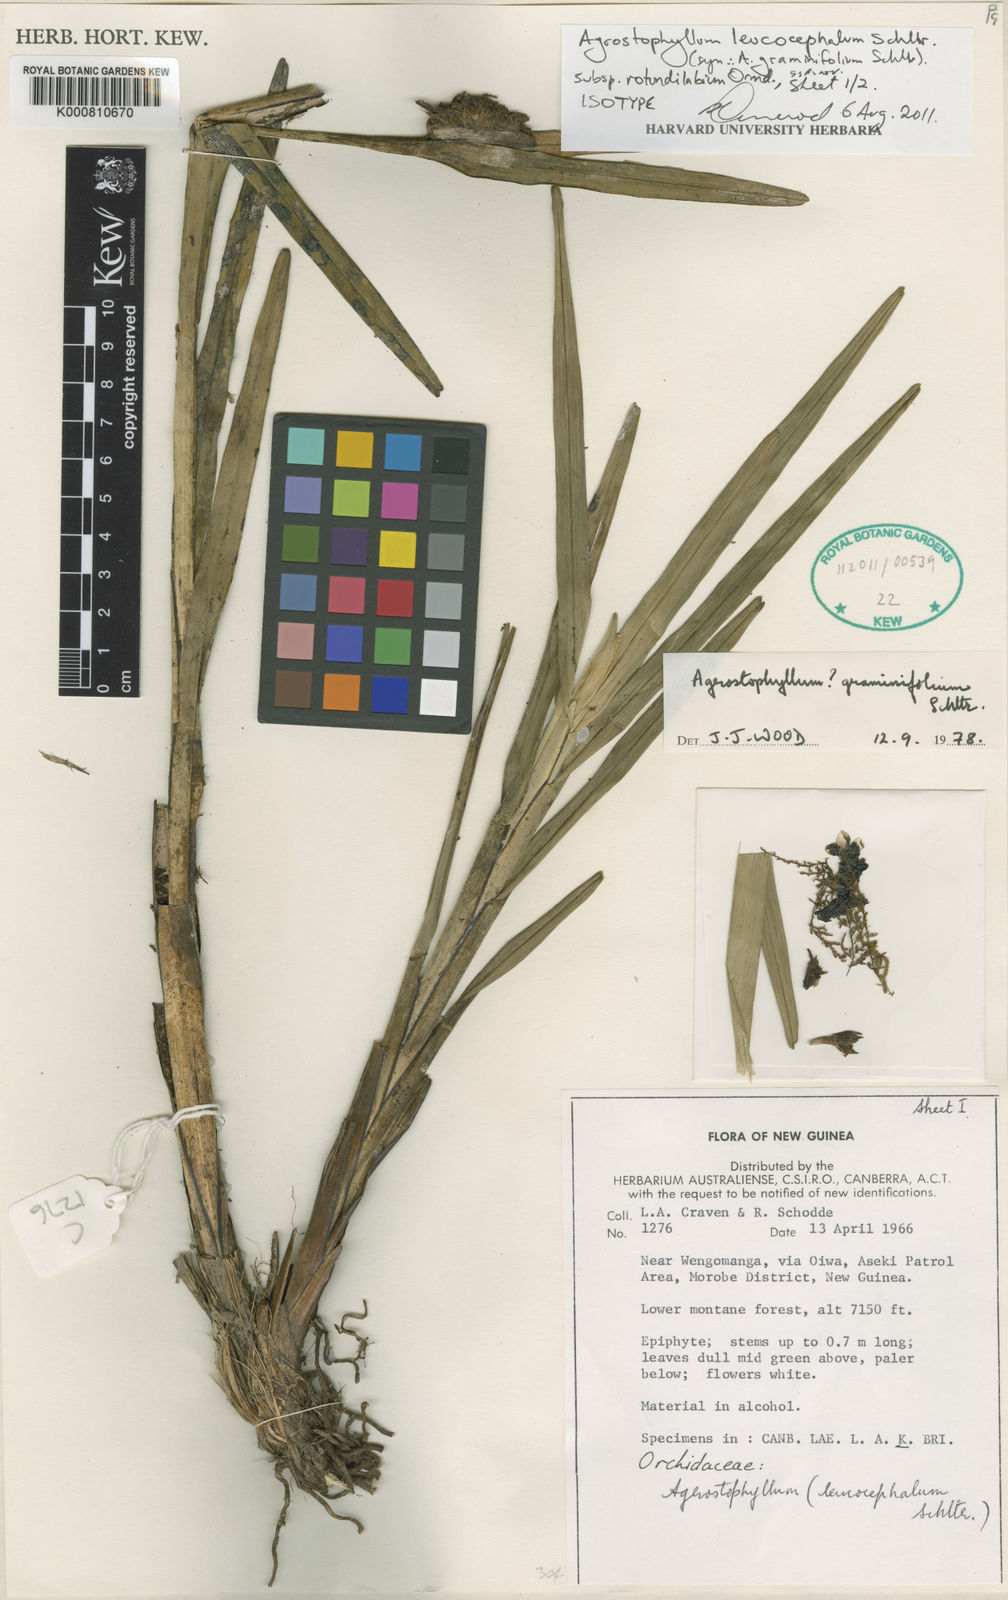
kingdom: Plantae
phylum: Tracheophyta
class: Liliopsida
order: Asparagales
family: Orchidaceae
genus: Agrostophyllum
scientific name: Agrostophyllum leucocephalum
